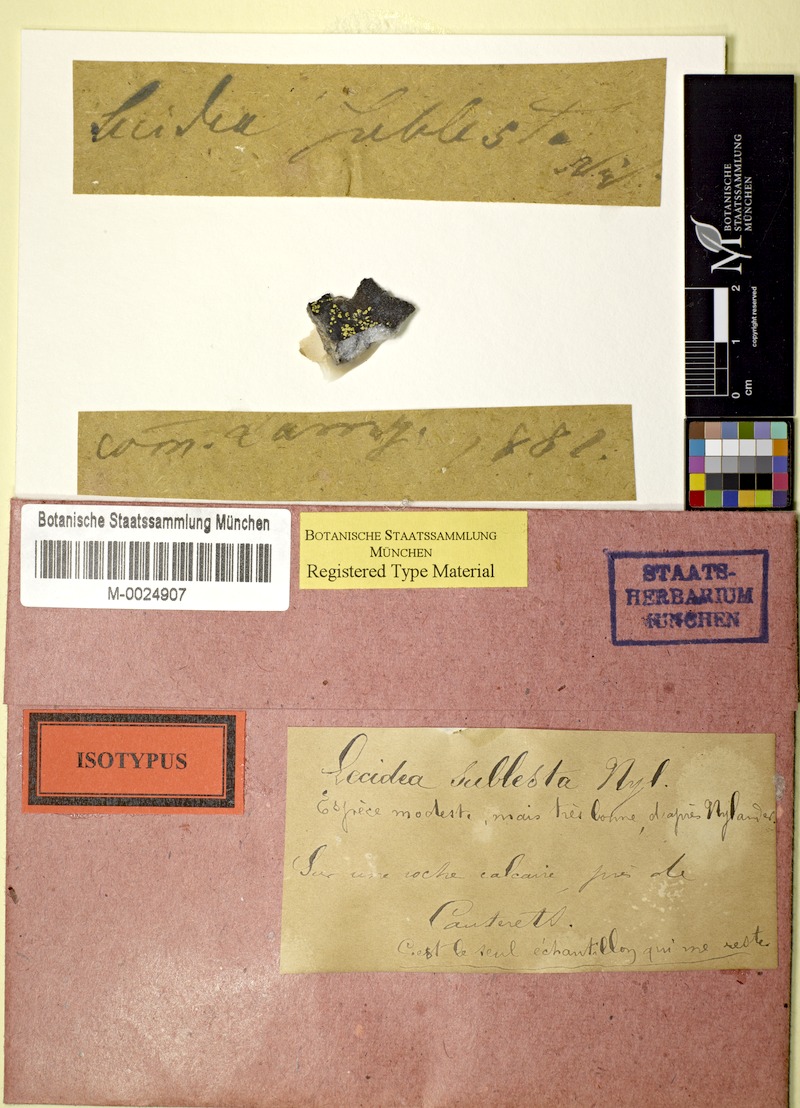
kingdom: Fungi
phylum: Ascomycota
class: Lecanoromycetes
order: Rhizocarpales
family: Rhizocarpaceae
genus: Rhizocarpon
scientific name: Rhizocarpon simillimum
